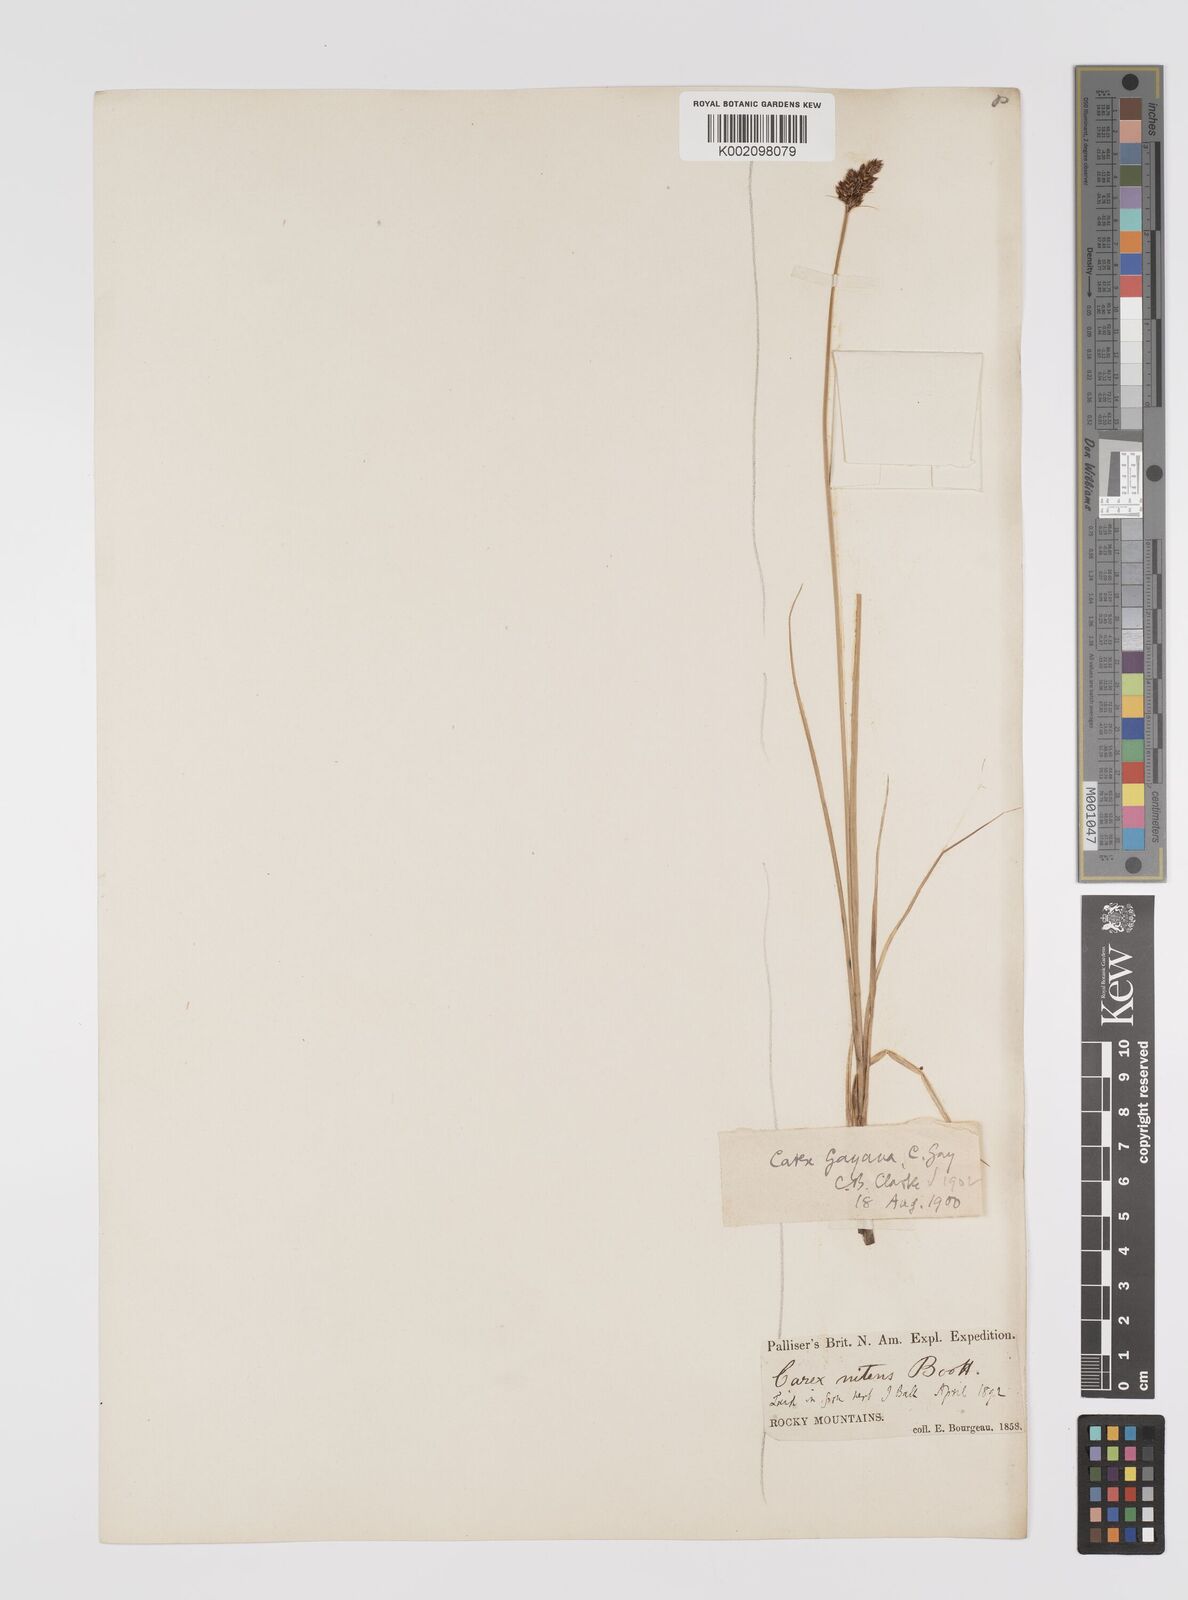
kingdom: Plantae
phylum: Tracheophyta
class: Liliopsida
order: Poales
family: Cyperaceae
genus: Carex
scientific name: Carex praegracilis
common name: Black creeper sedge
